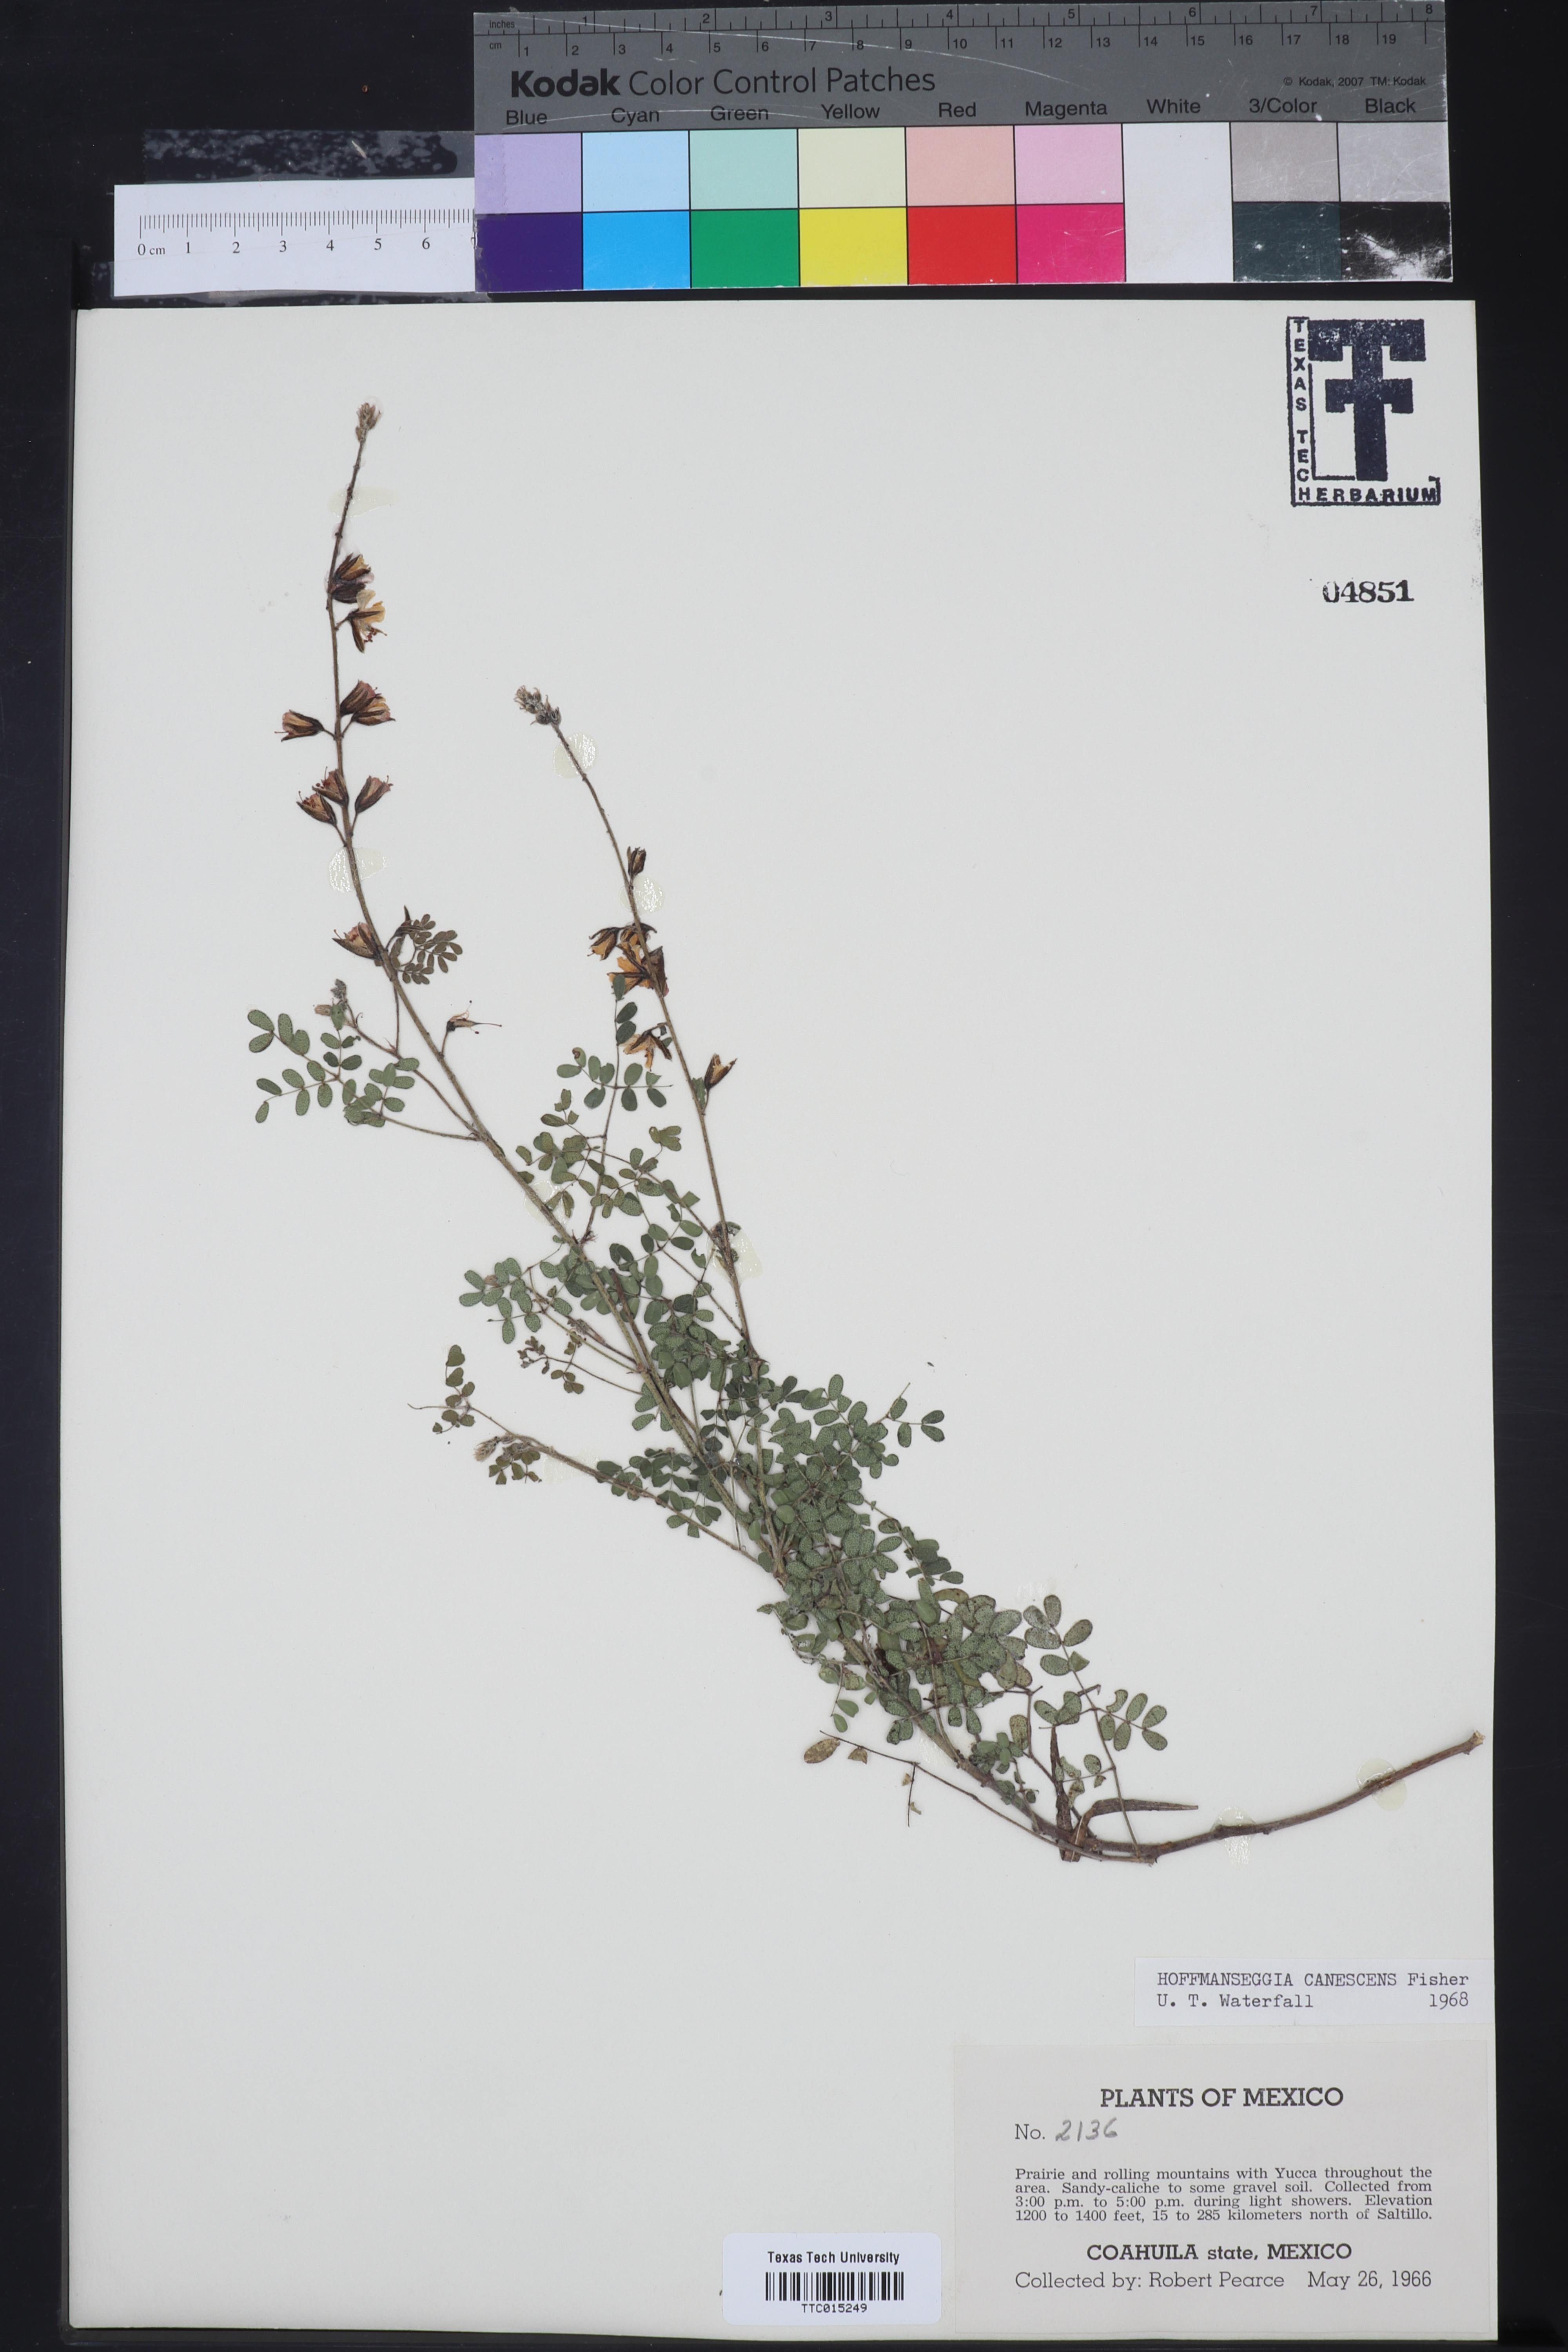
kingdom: Plantae
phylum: Tracheophyta
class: Magnoliopsida
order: Fabales
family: Fabaceae
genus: Pomaria
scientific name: Pomaria canescens
